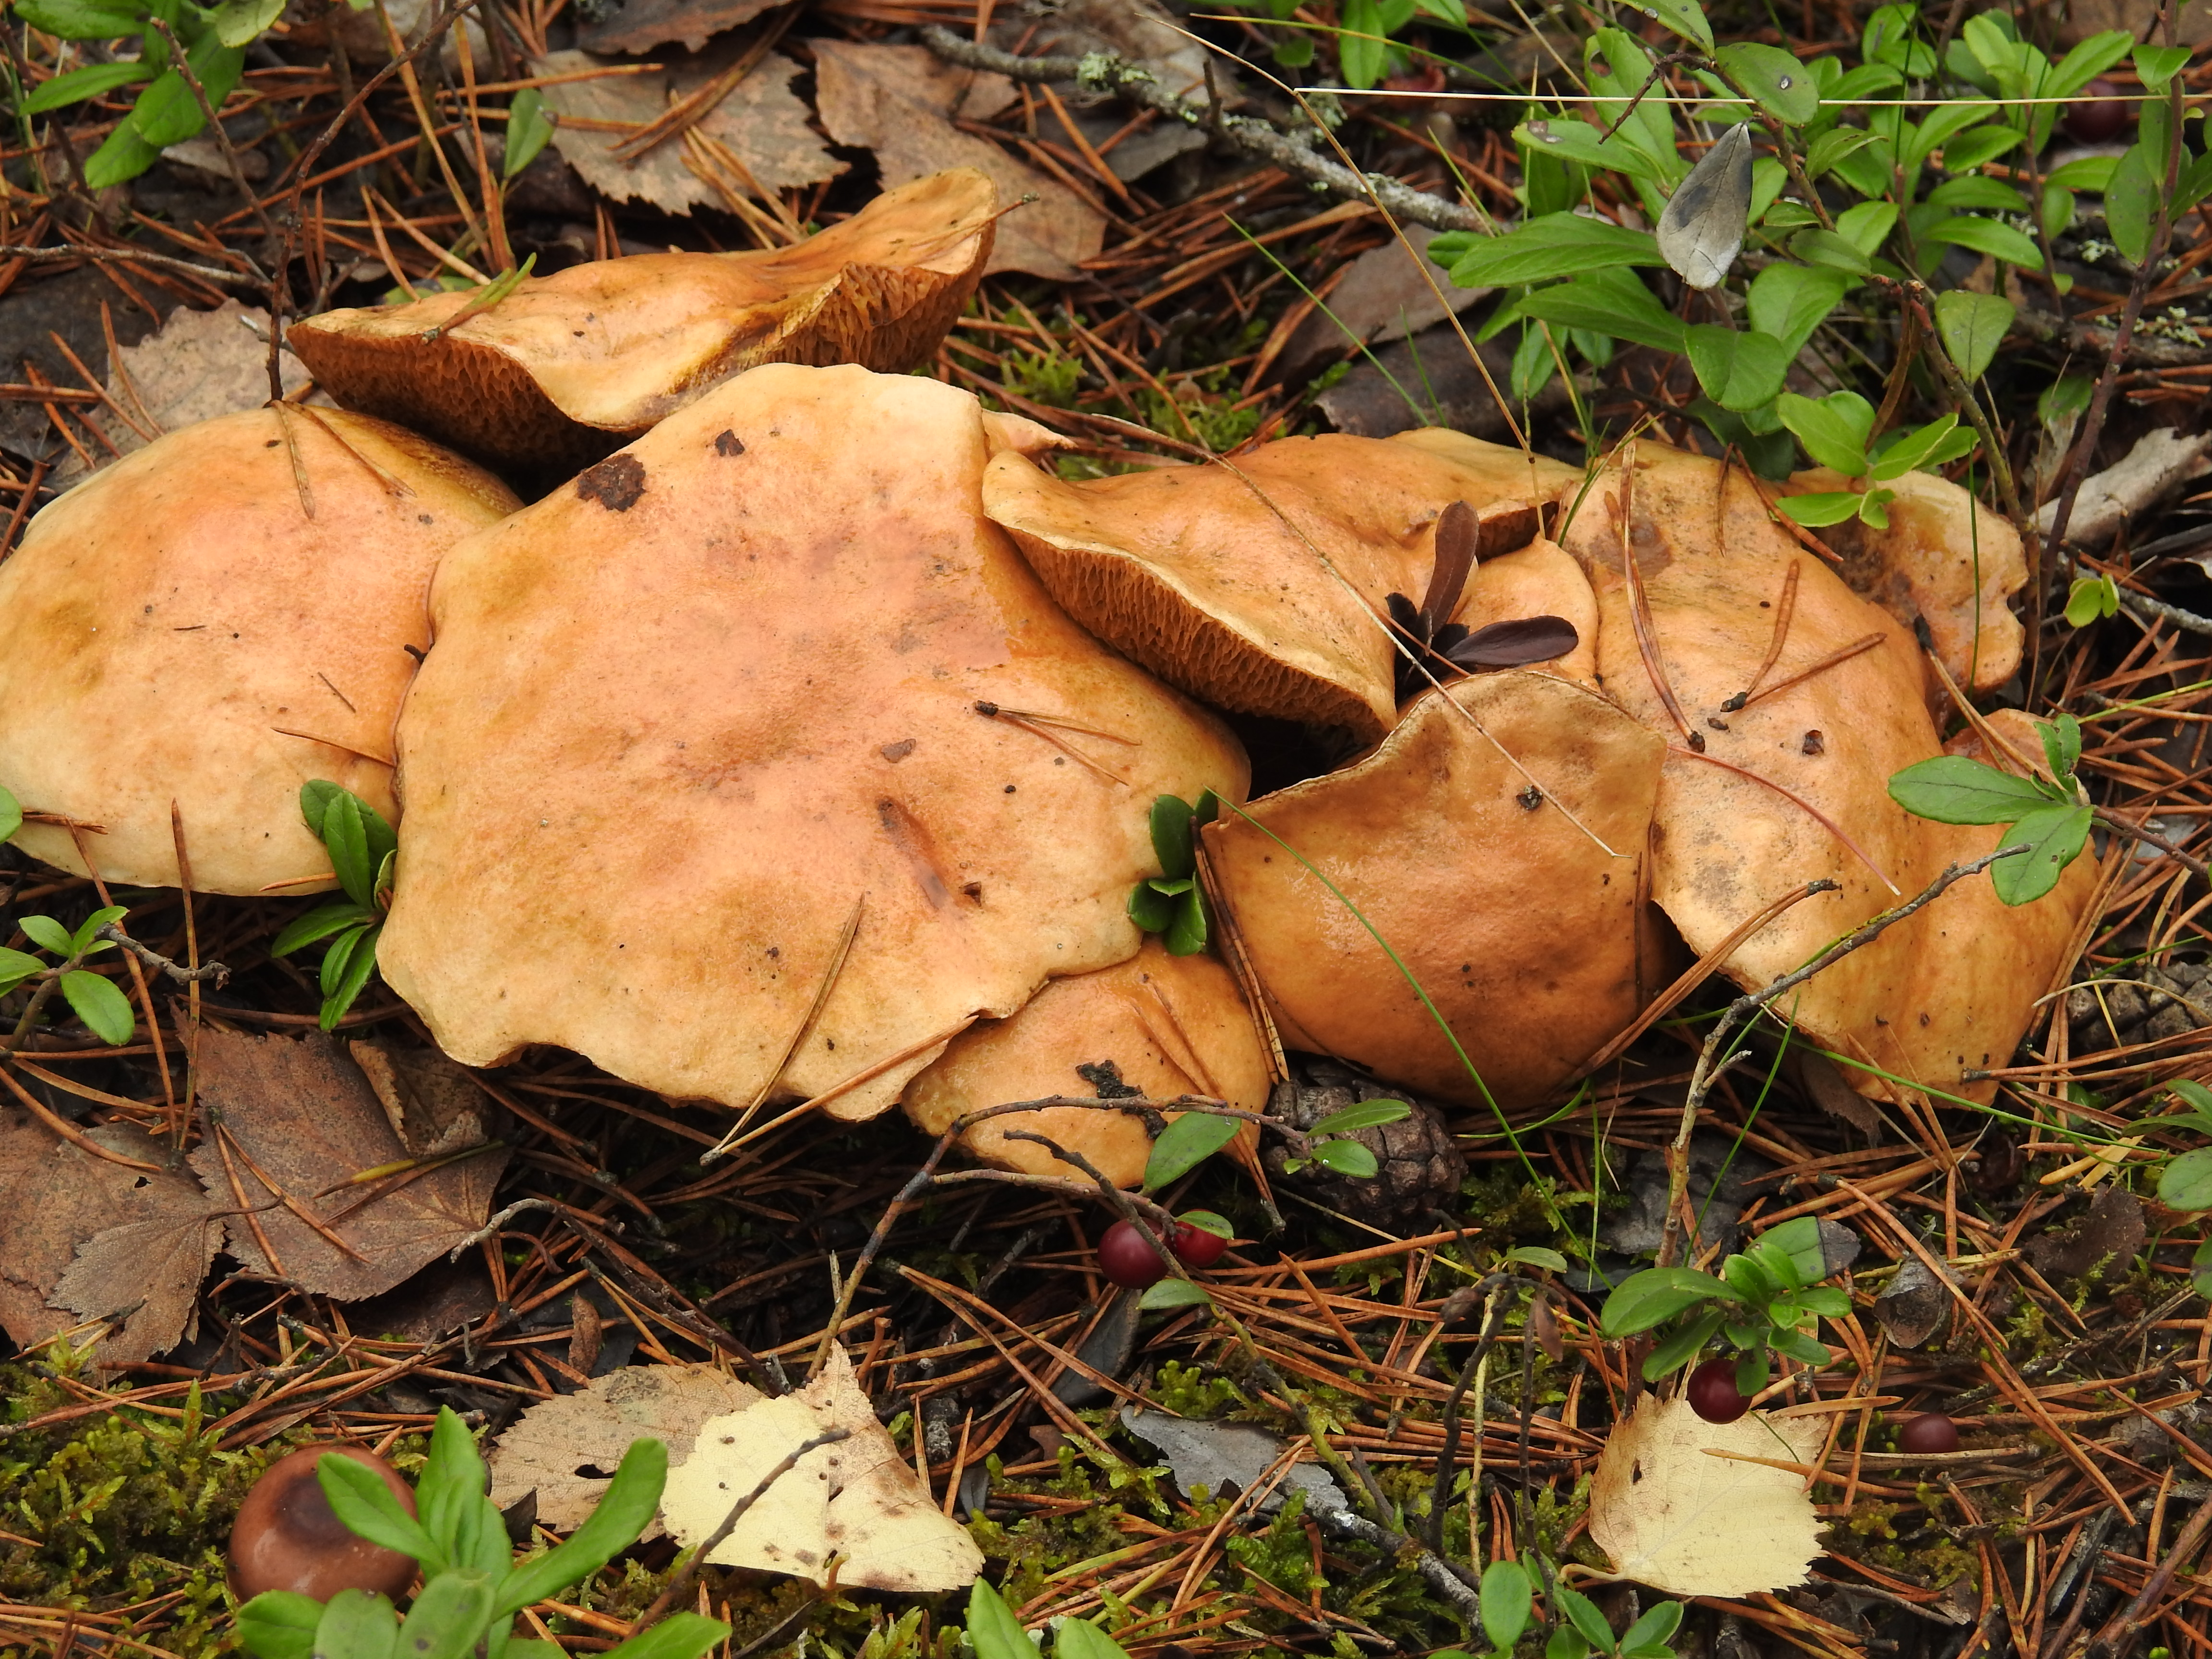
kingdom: Fungi
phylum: Basidiomycota
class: Agaricomycetes
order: Boletales
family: Suillaceae
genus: Suillus
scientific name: Suillus bovinus
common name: Bovine bolete
